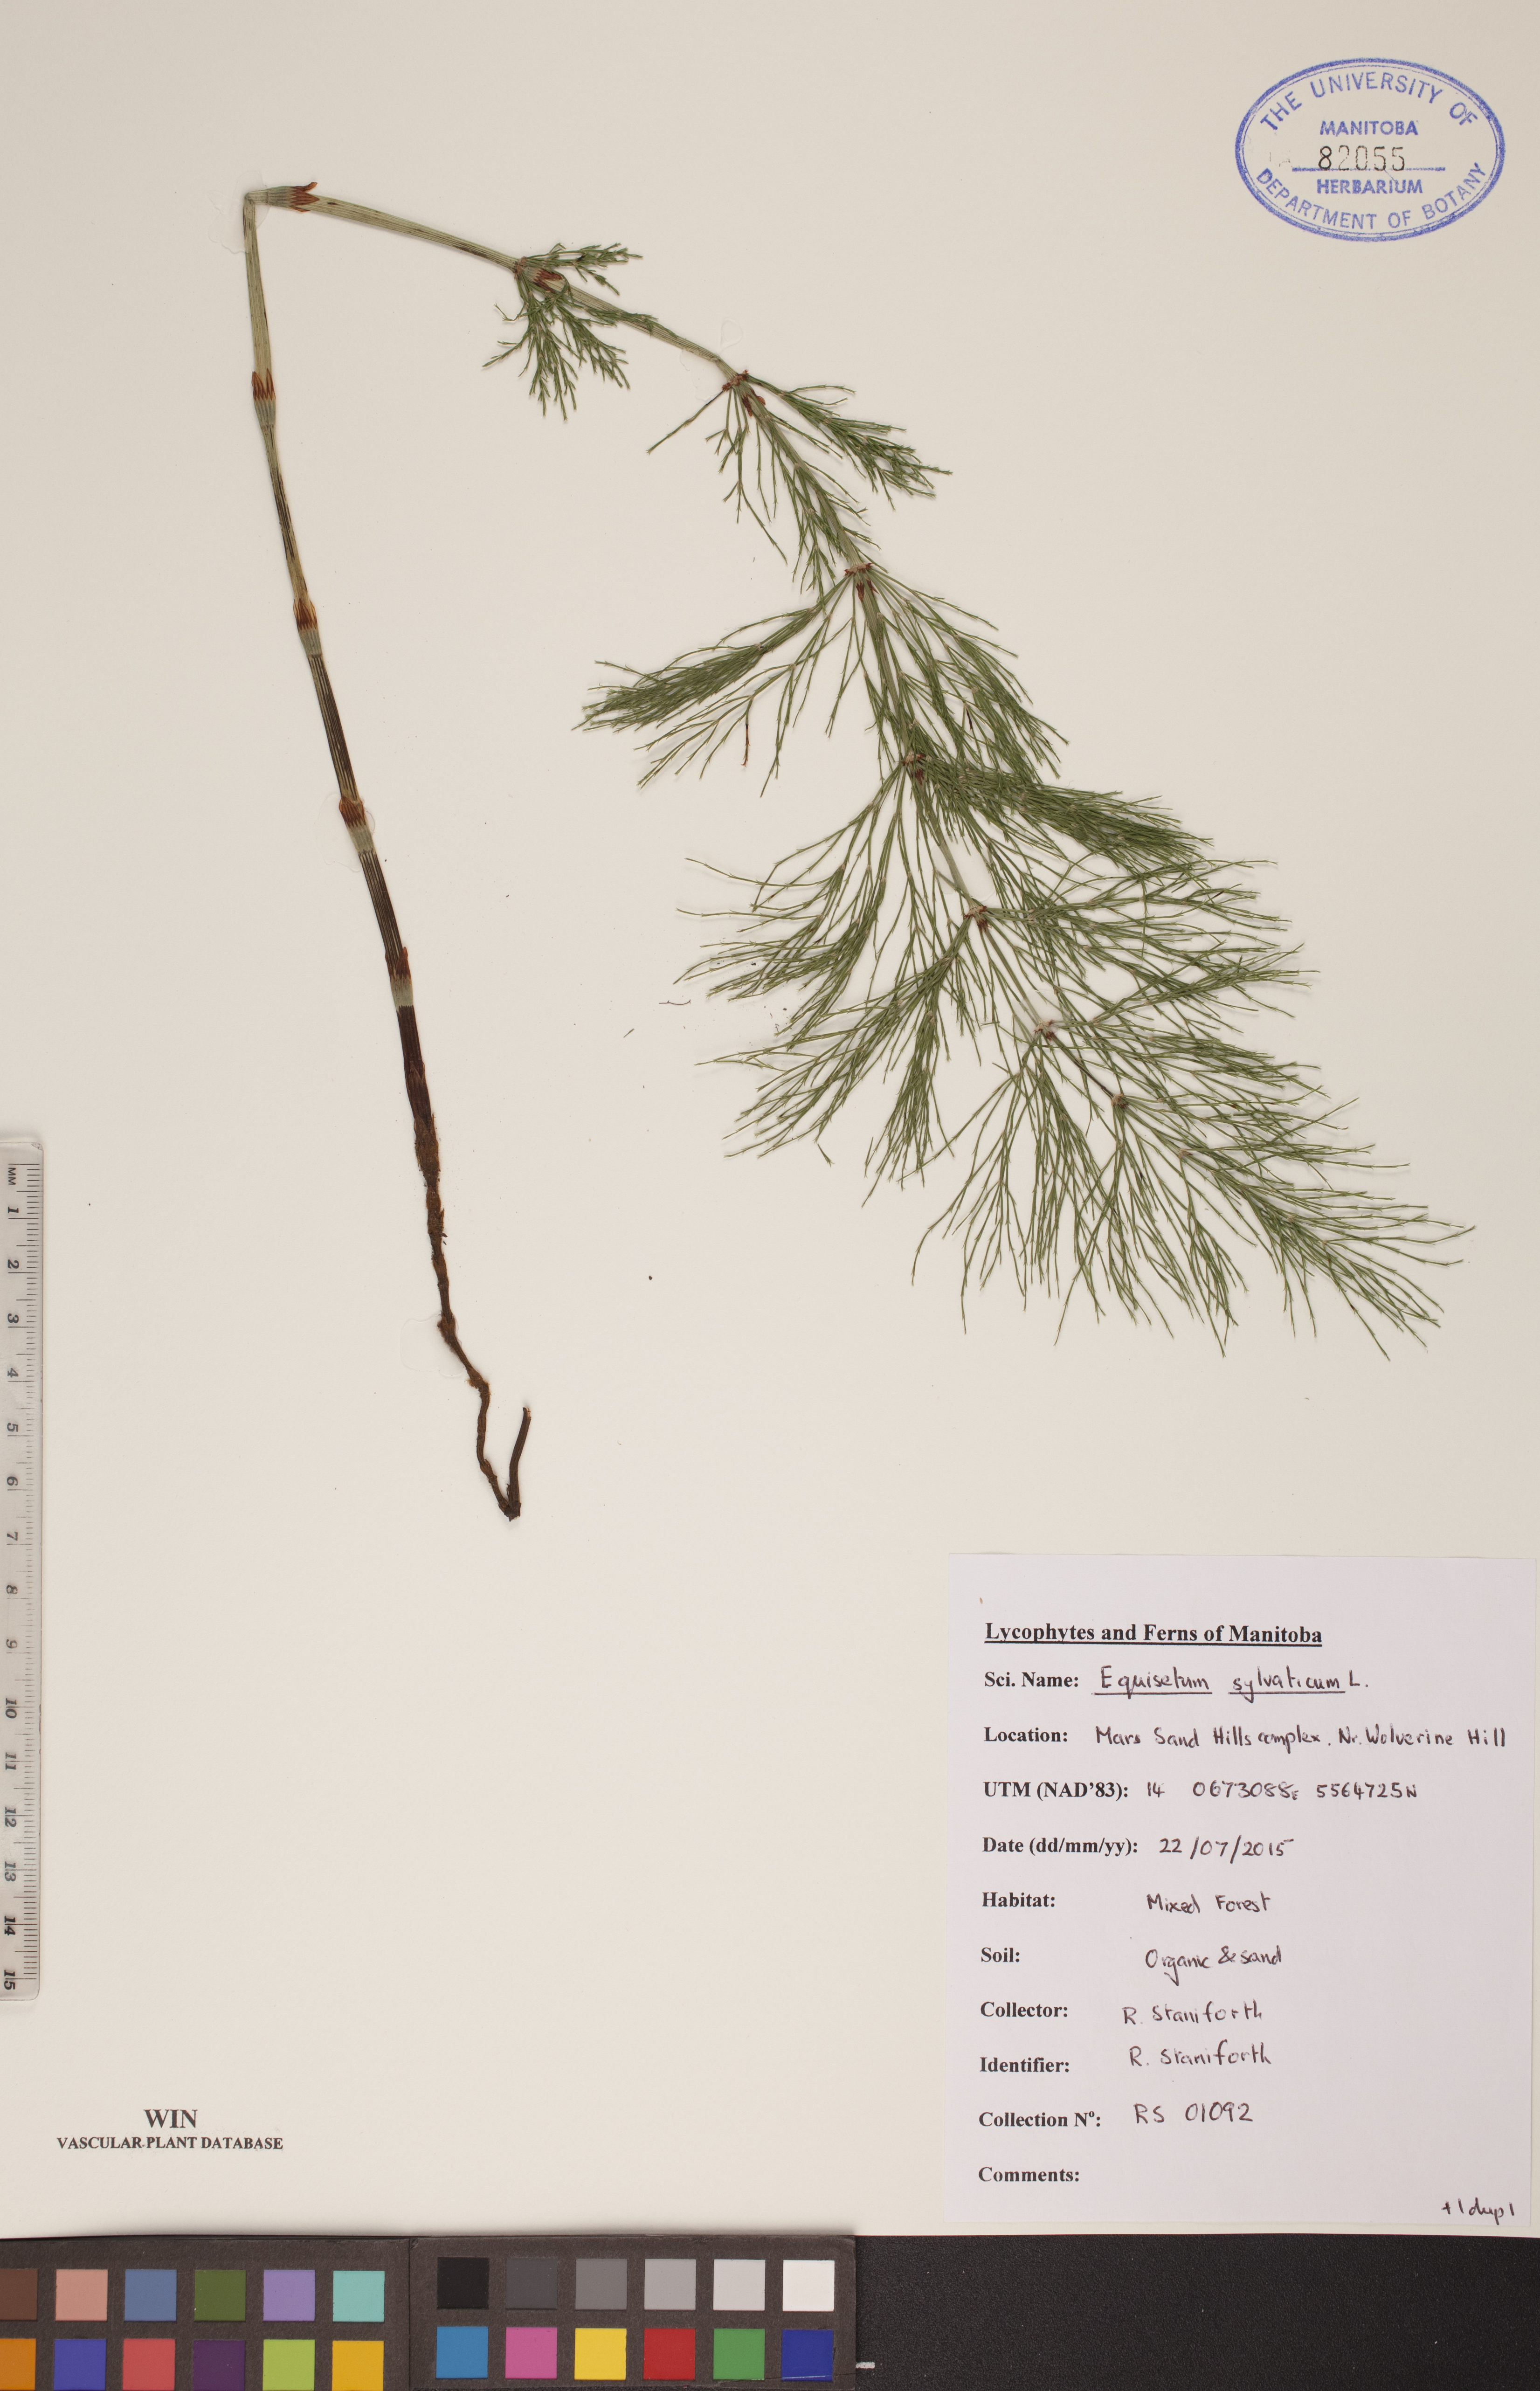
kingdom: Plantae
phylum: Tracheophyta
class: Polypodiopsida
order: Equisetales
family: Equisetaceae
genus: Equisetum
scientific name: Equisetum sylvaticum
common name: Wood horsetail
